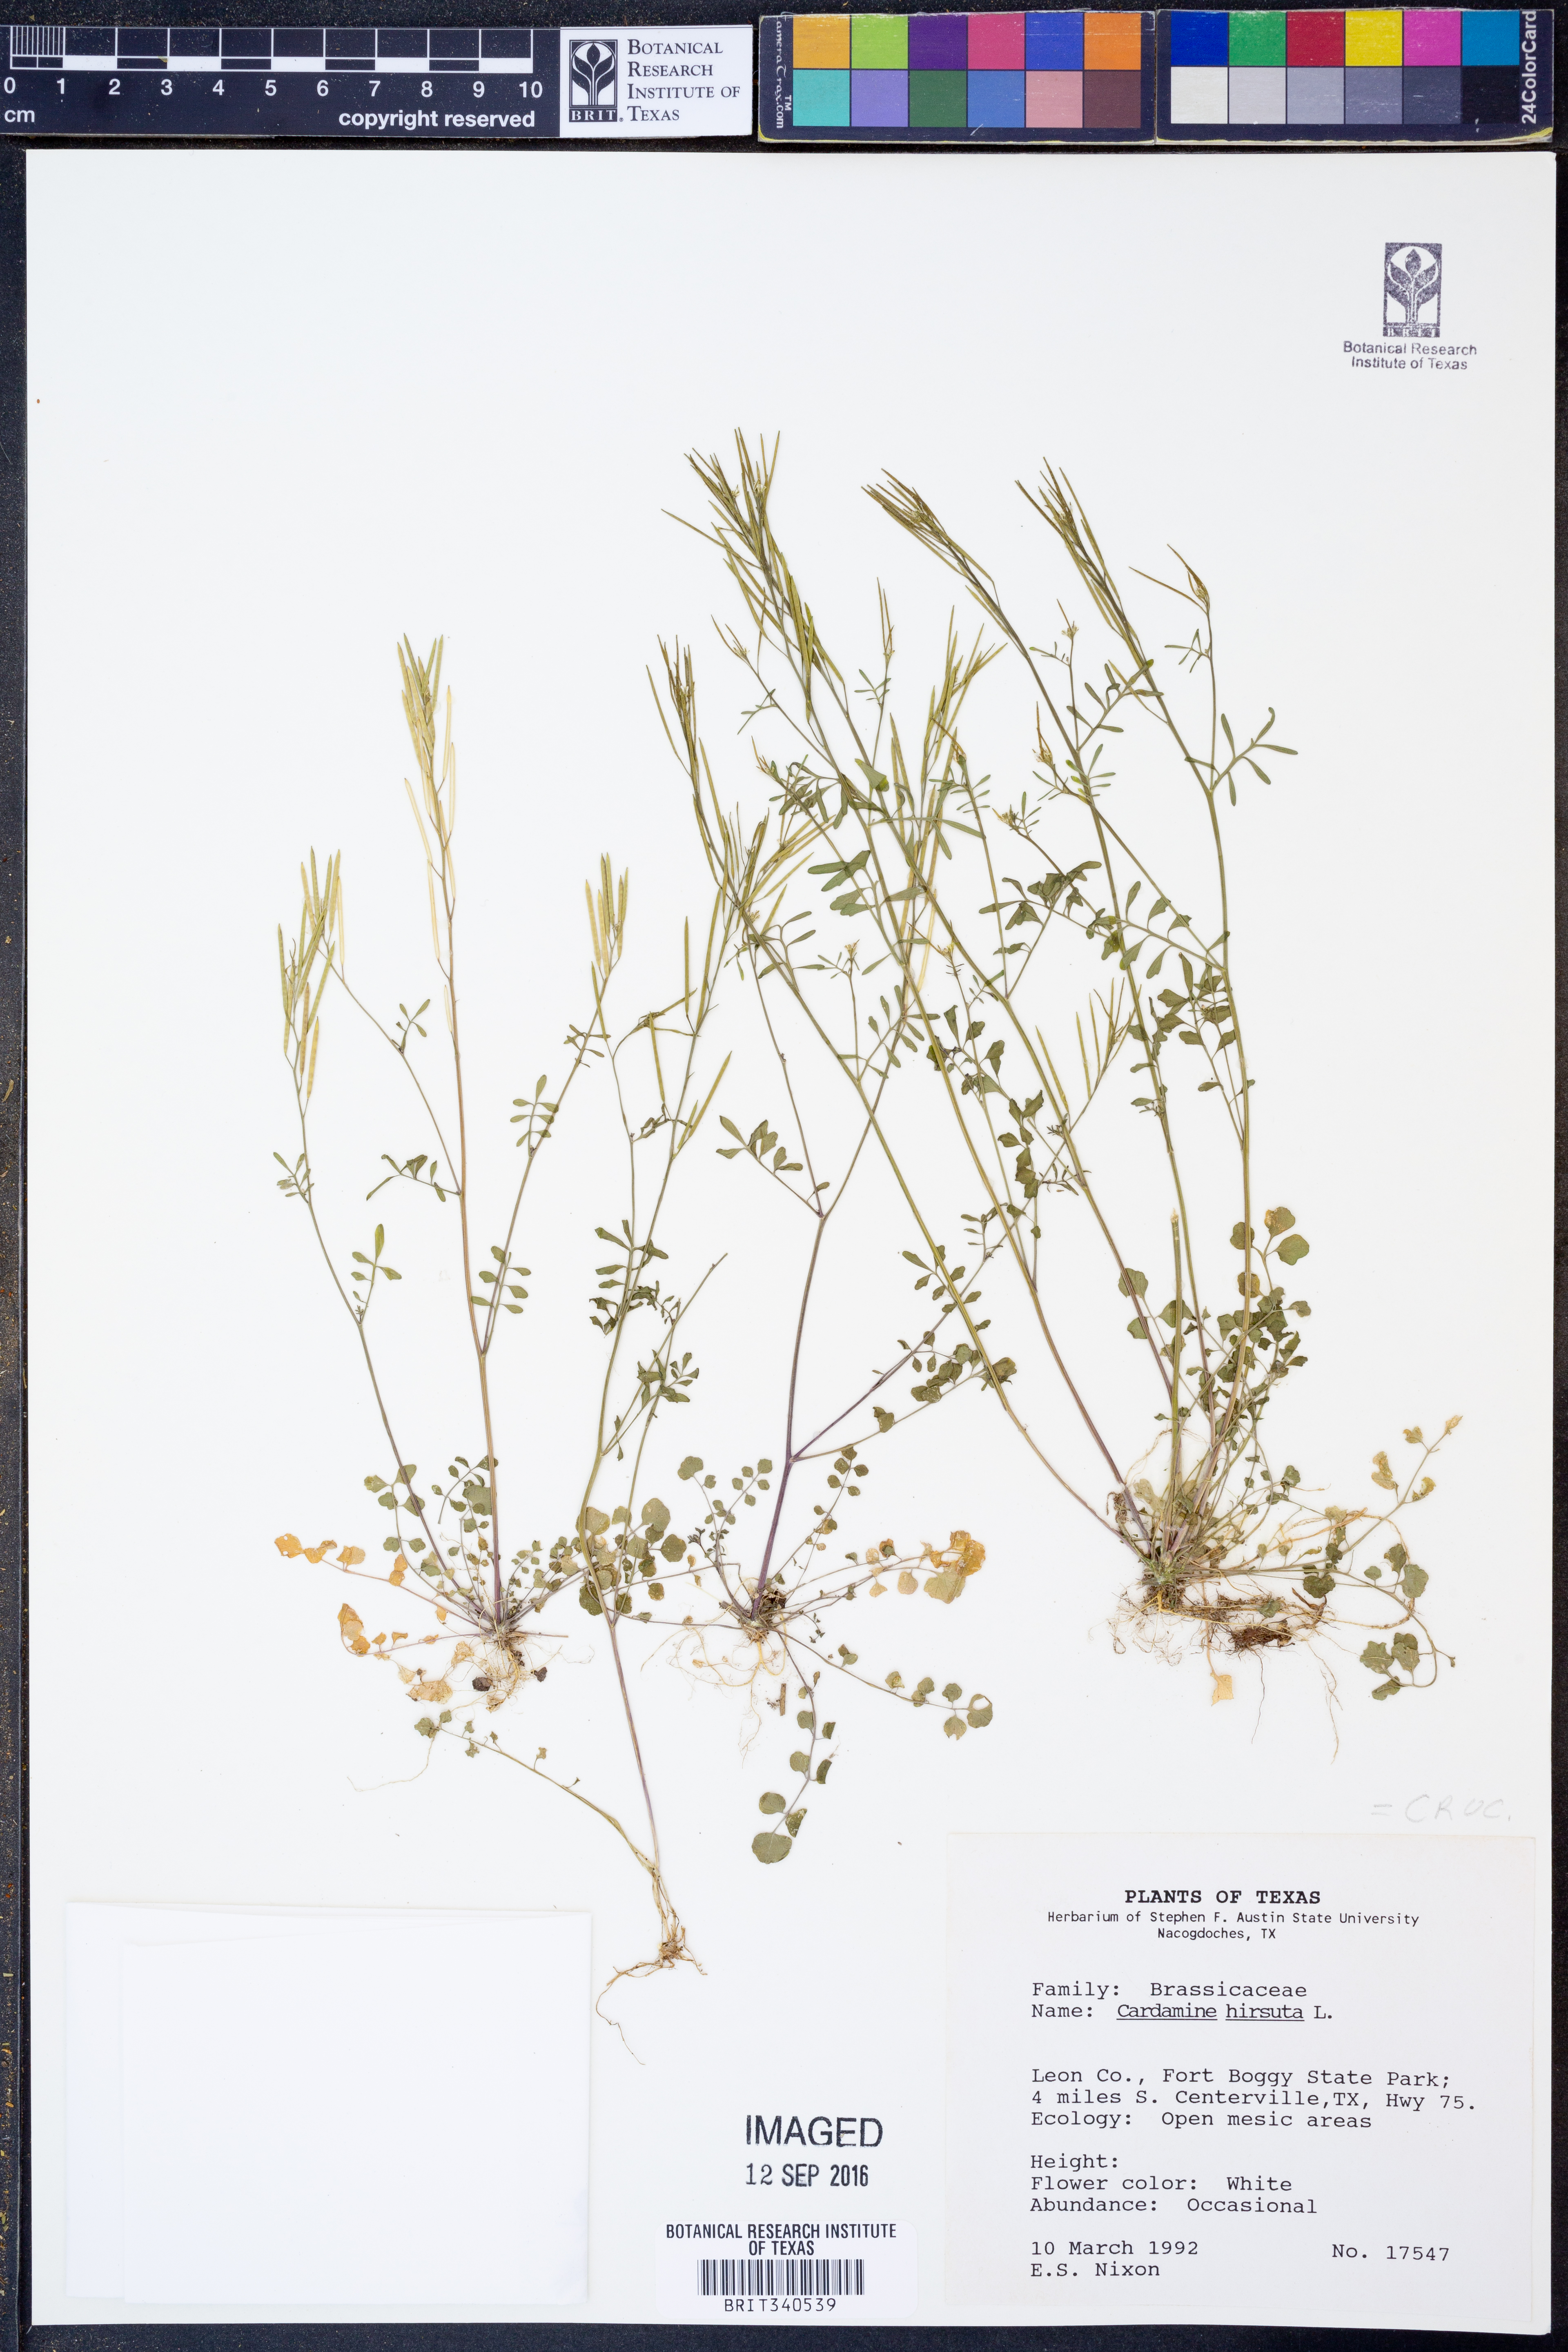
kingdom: Plantae
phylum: Tracheophyta
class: Magnoliopsida
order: Brassicales
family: Brassicaceae
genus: Cardamine
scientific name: Cardamine hirsuta
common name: Hairy bittercress
